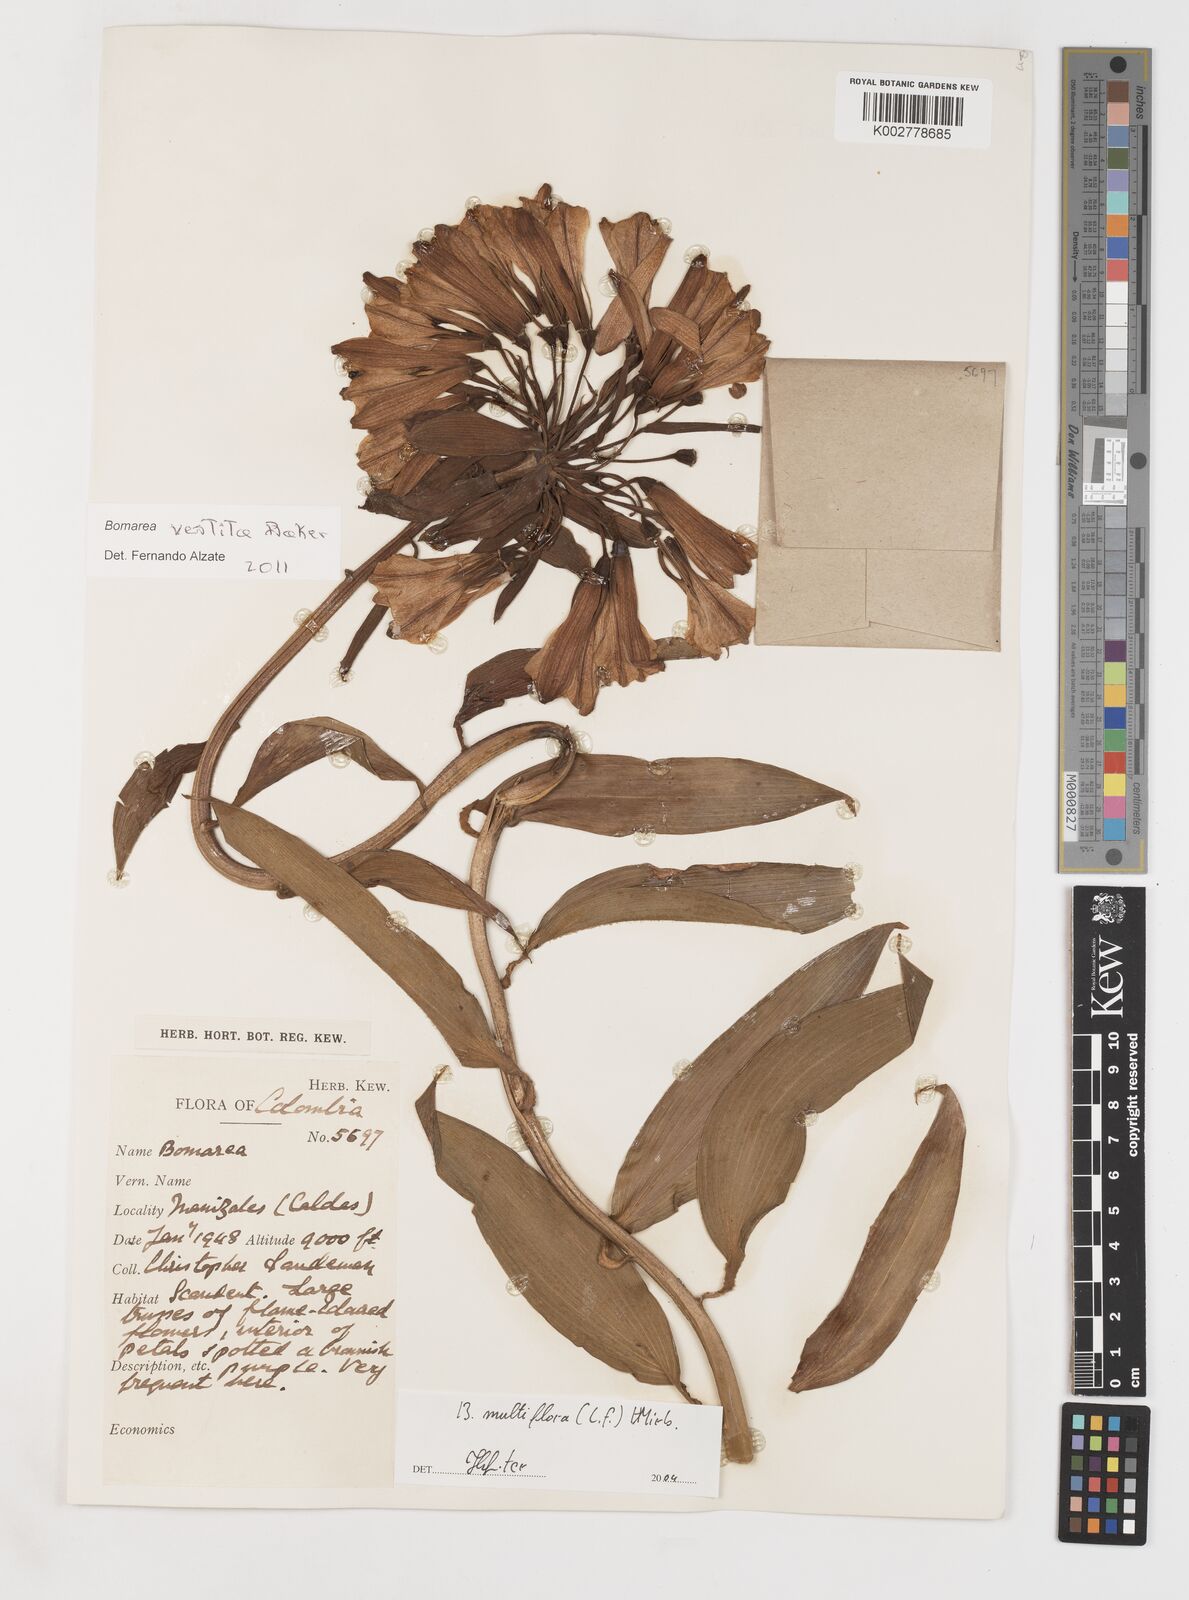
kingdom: Plantae
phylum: Tracheophyta
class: Liliopsida
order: Liliales
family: Alstroemeriaceae
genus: Bomarea
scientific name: Bomarea multiflora
